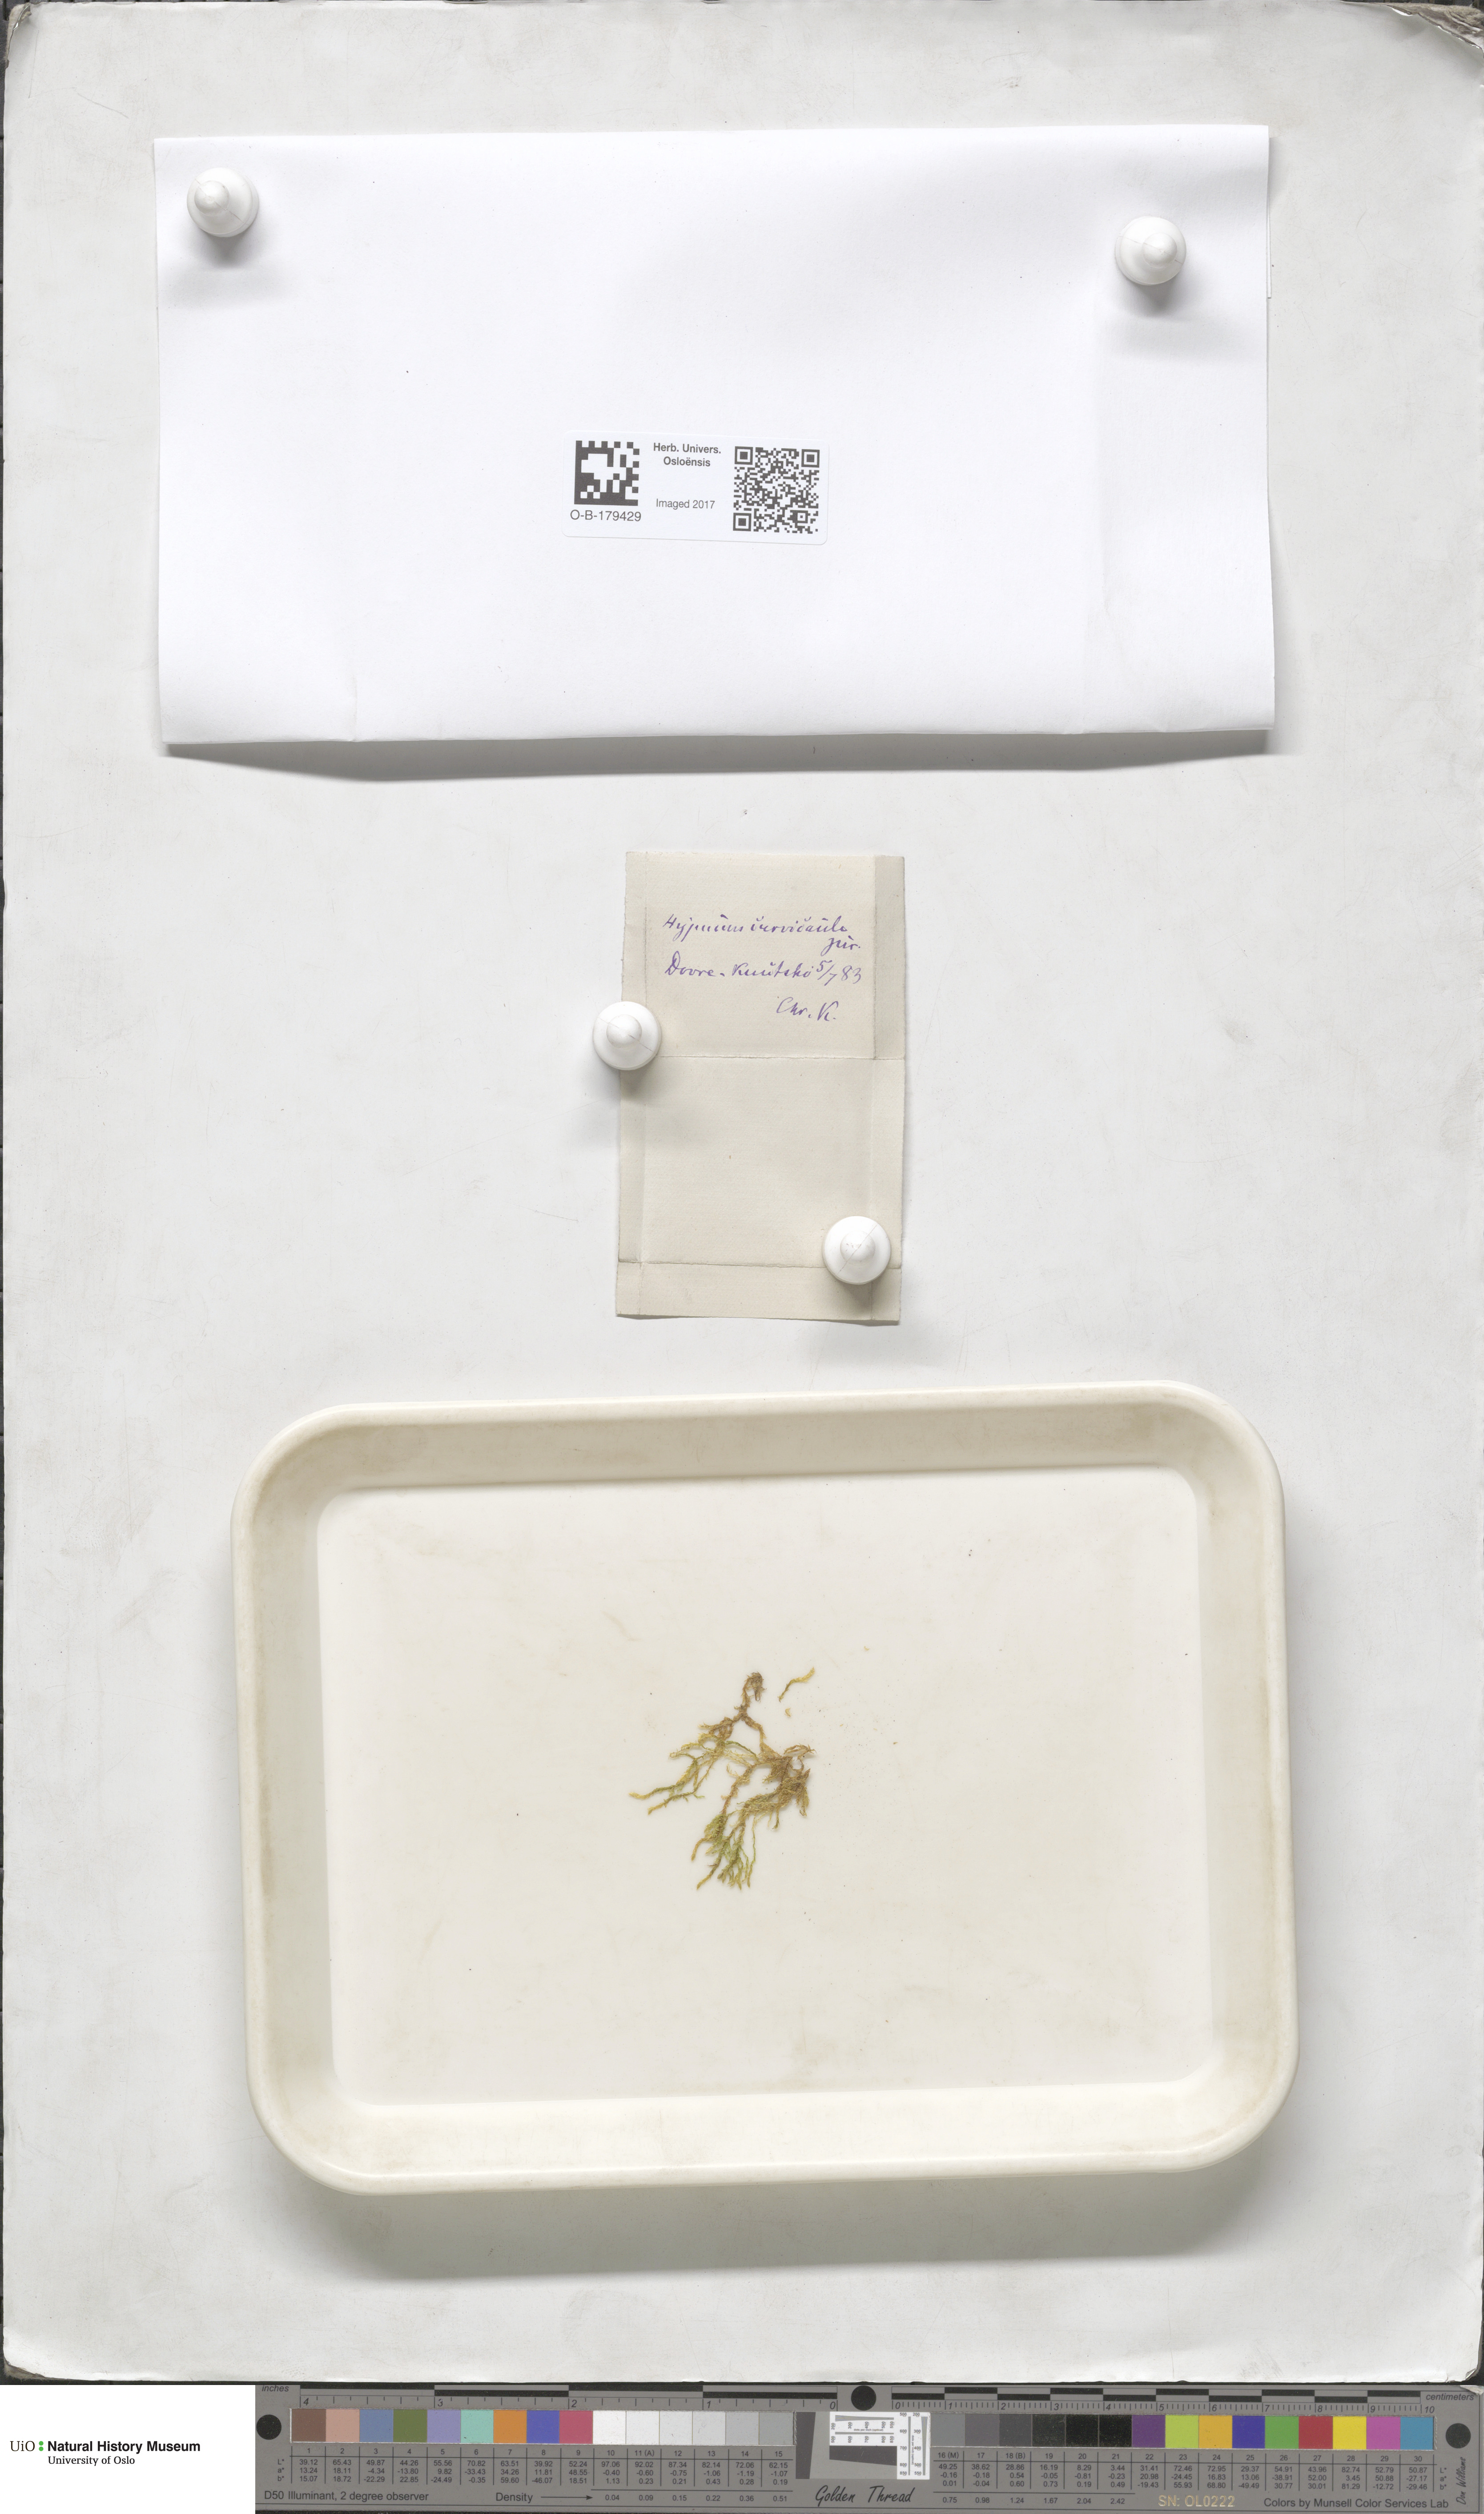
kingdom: Plantae
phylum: Bryophyta
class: Bryopsida
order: Hypnales
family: Amblystegiaceae
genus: Cratoneuron
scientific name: Cratoneuron filicinum
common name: Fern-leaved hook moss
